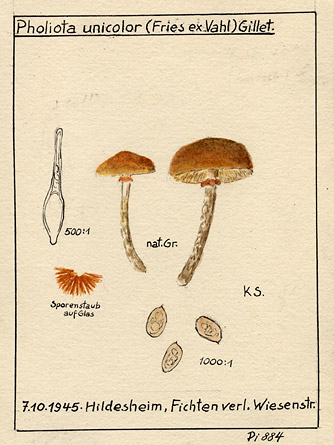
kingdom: Fungi
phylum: Basidiomycota
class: Agaricomycetes
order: Agaricales
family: Hymenogastraceae
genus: Galerina
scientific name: Galerina marginata
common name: Funeral bell
